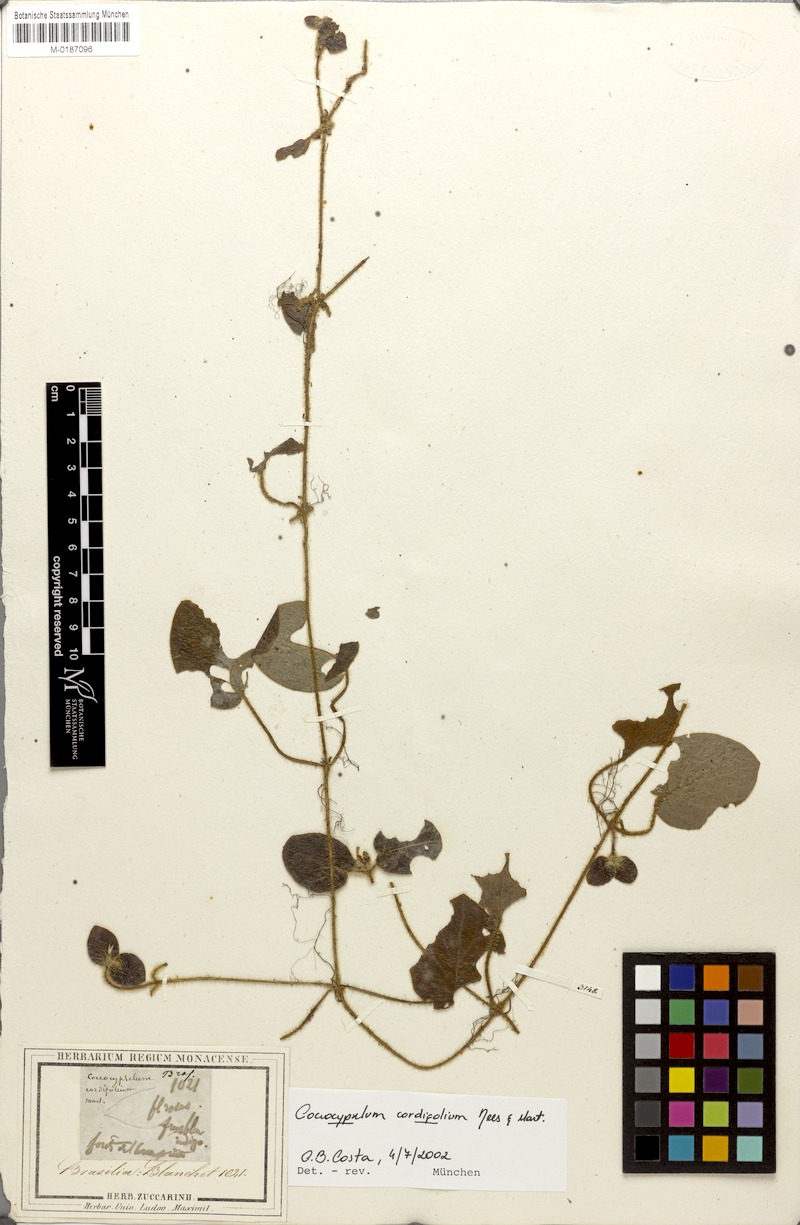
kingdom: Plantae
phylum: Tracheophyta
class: Magnoliopsida
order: Gentianales
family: Rubiaceae
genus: Coccocypselum
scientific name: Coccocypselum cordifolium
